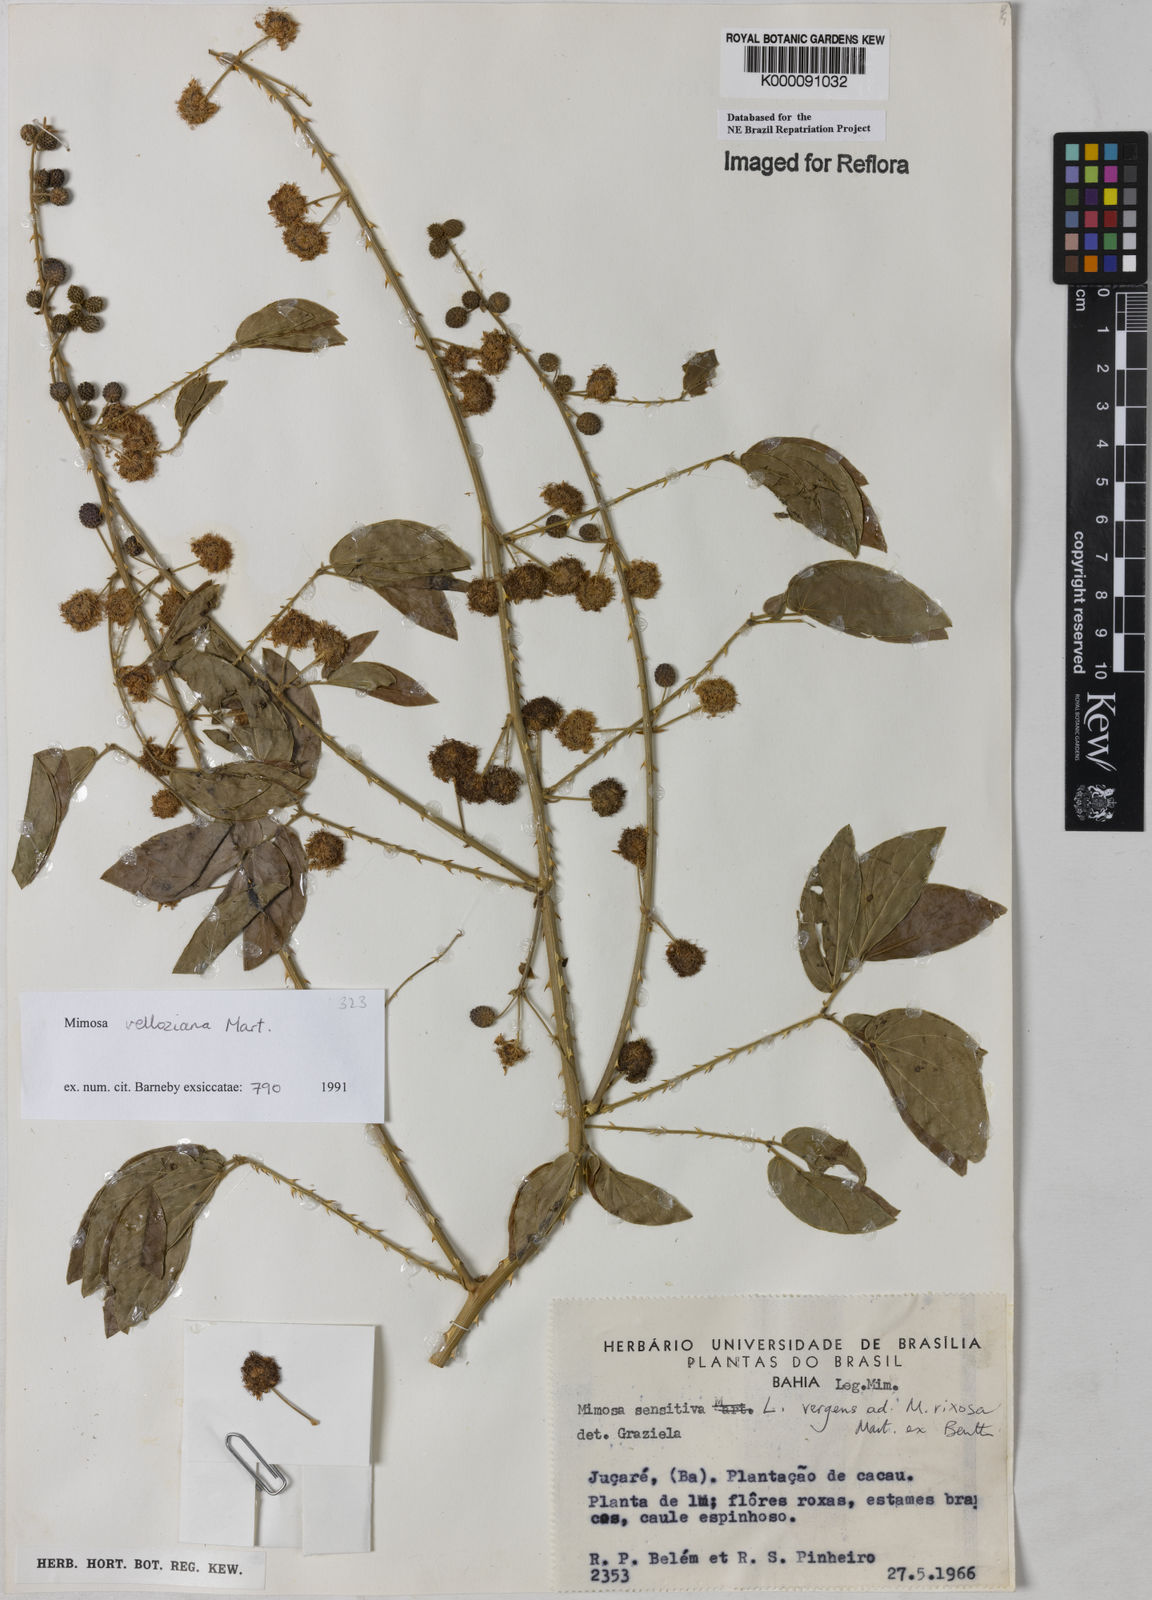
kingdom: Plantae
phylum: Tracheophyta
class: Magnoliopsida
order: Fabales
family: Fabaceae
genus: Mimosa
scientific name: Mimosa velloziana
